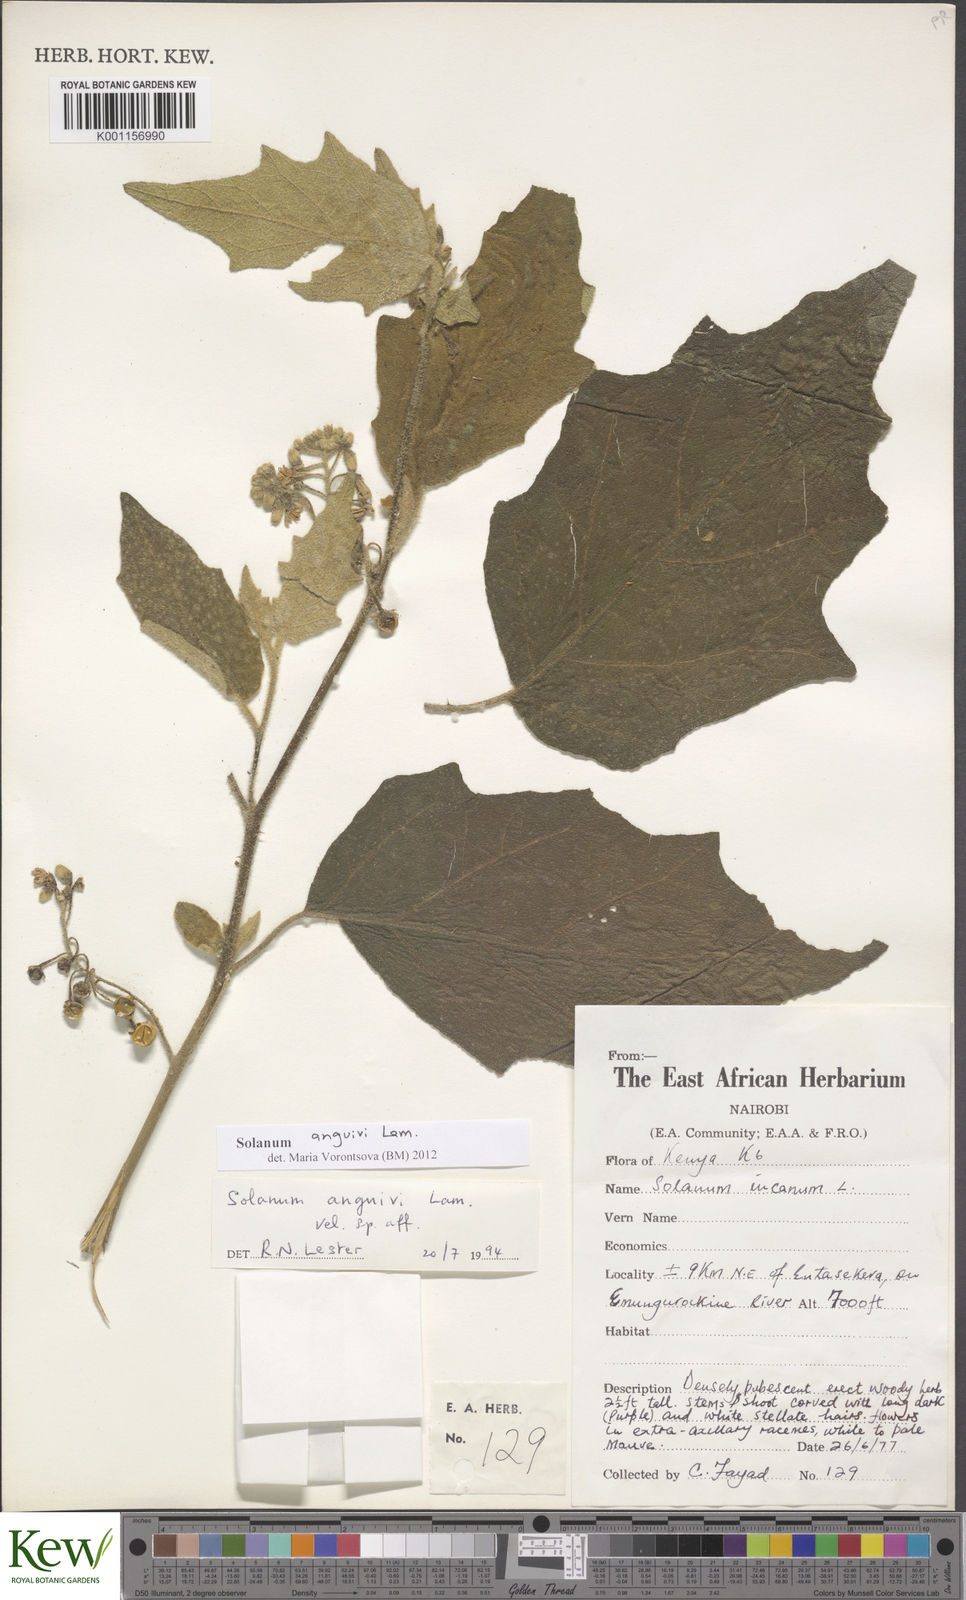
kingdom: Plantae
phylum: Tracheophyta
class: Magnoliopsida
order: Solanales
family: Solanaceae
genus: Solanum
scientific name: Solanum anguivi
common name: Forest bitterberry
